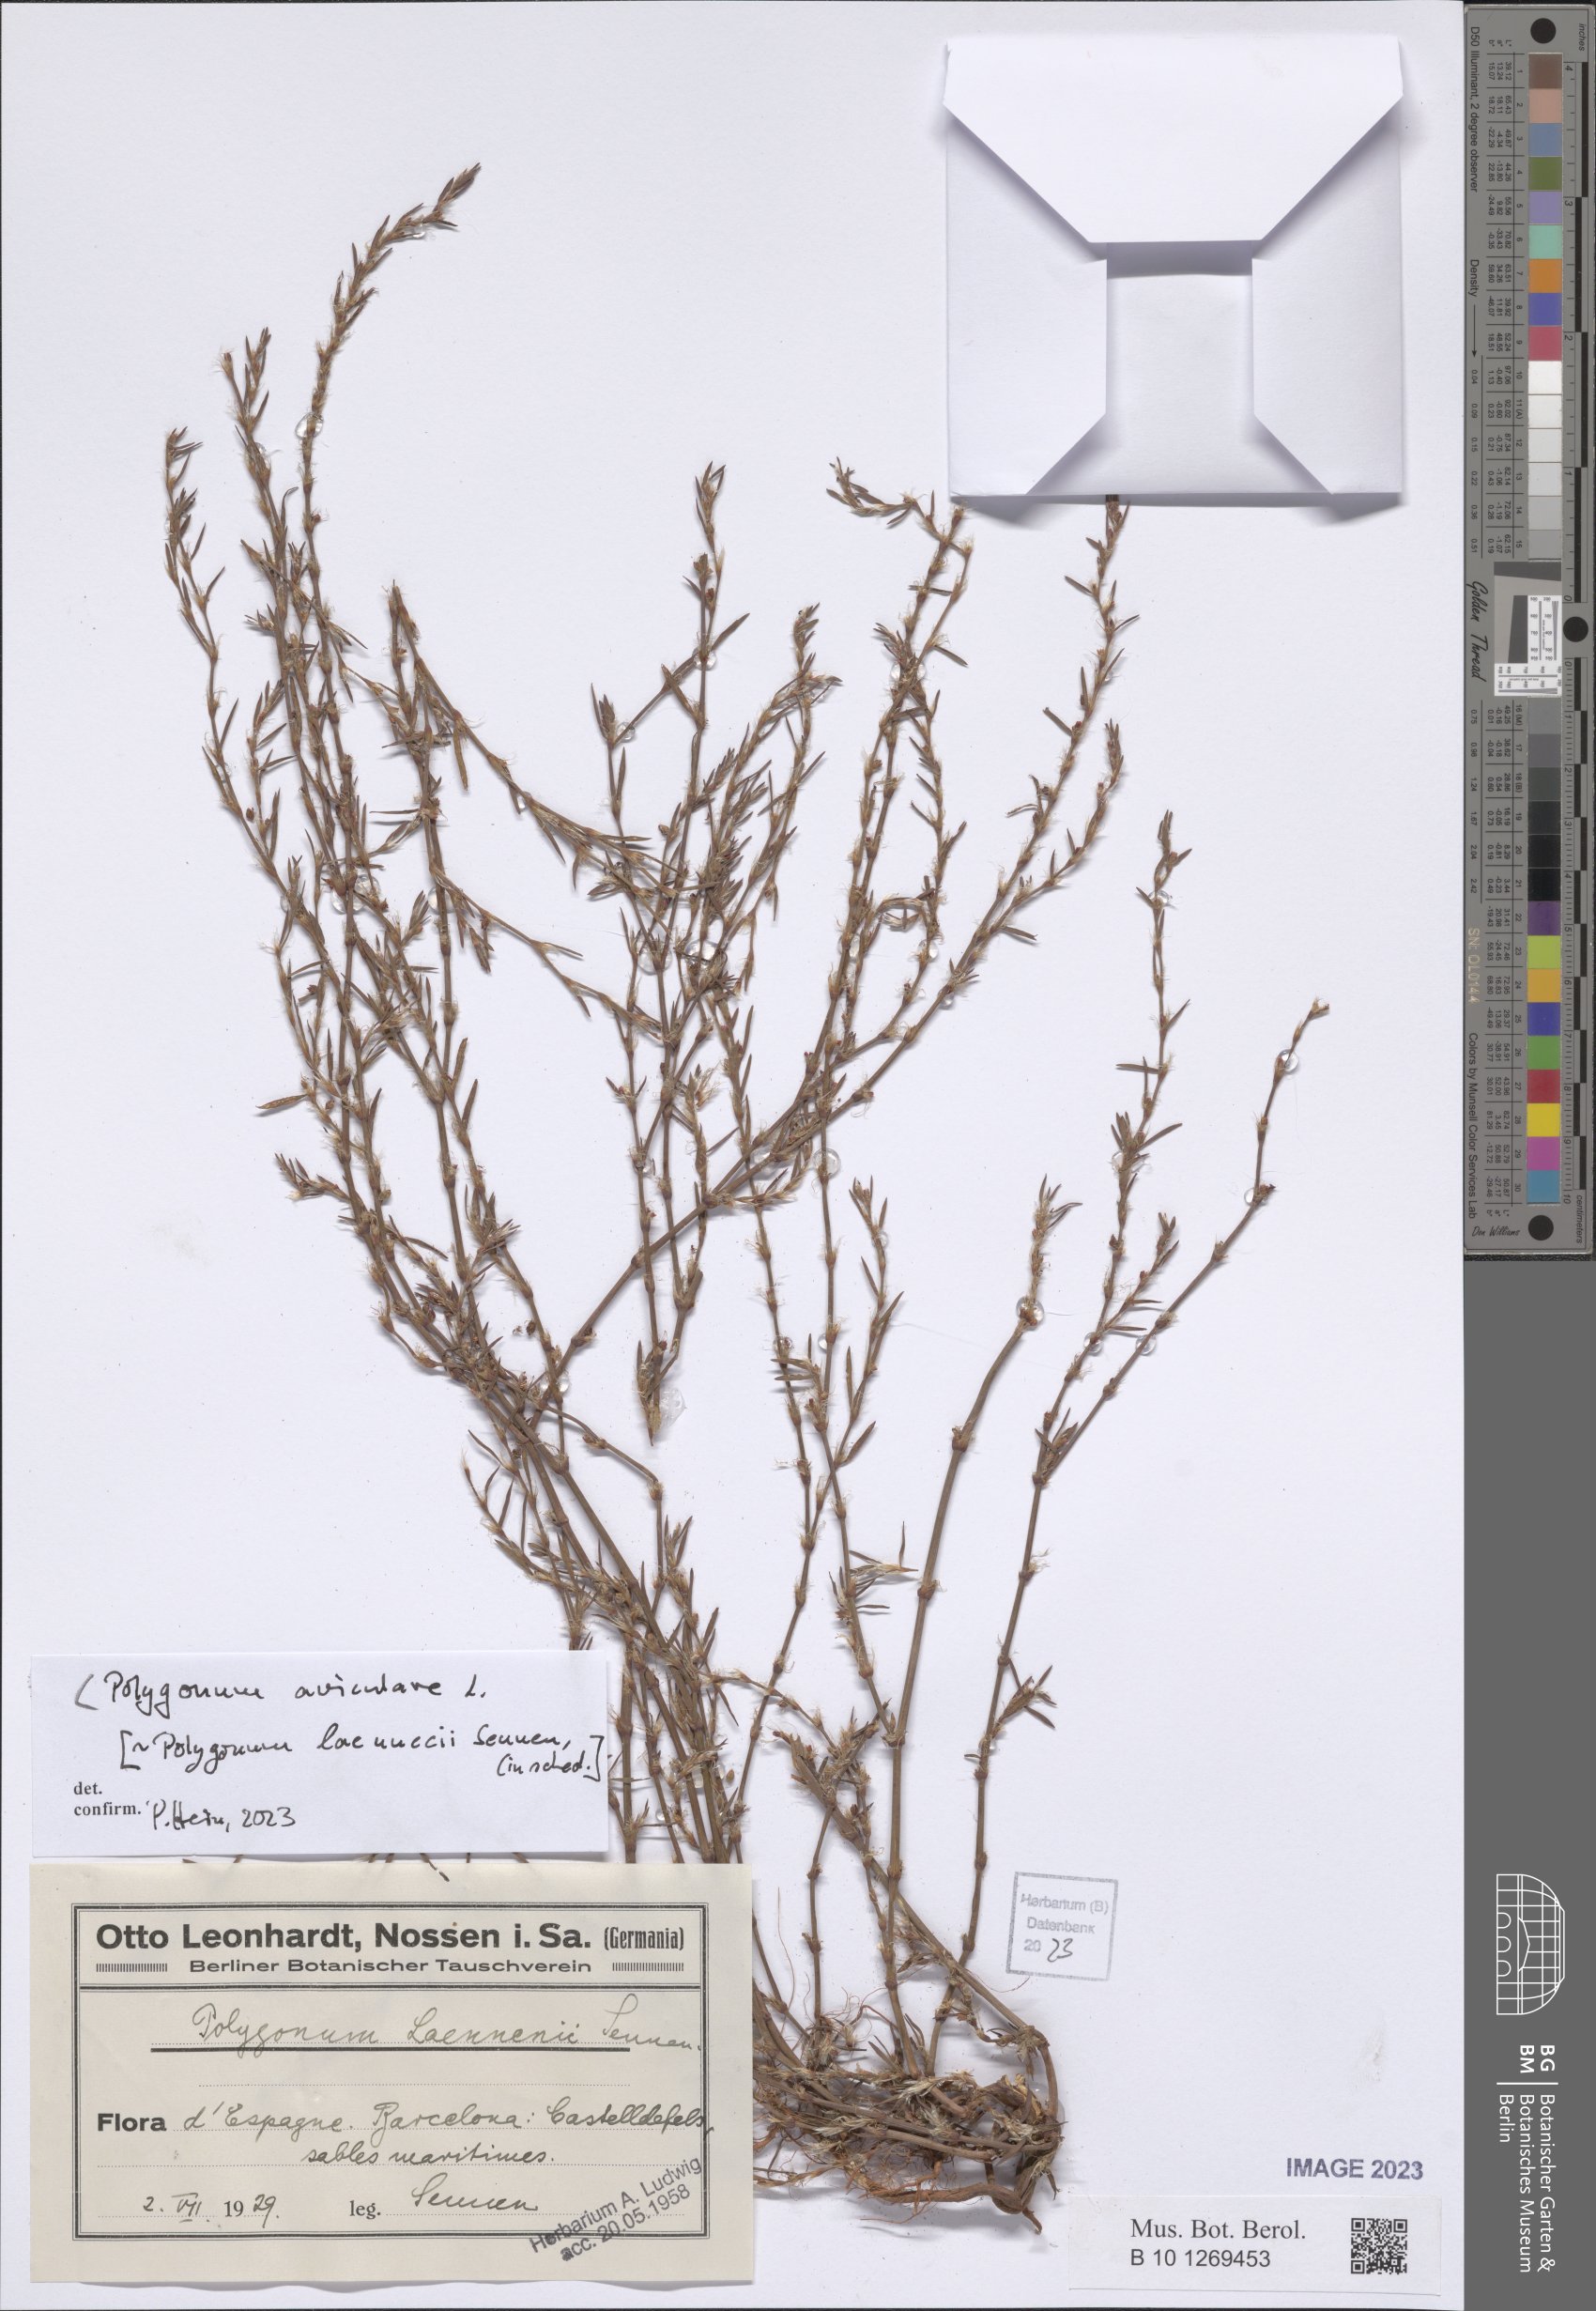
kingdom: Plantae
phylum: Tracheophyta
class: Magnoliopsida
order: Caryophyllales
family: Polygonaceae
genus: Polygonum
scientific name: Polygonum aviculare
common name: Prostrate knotweed
